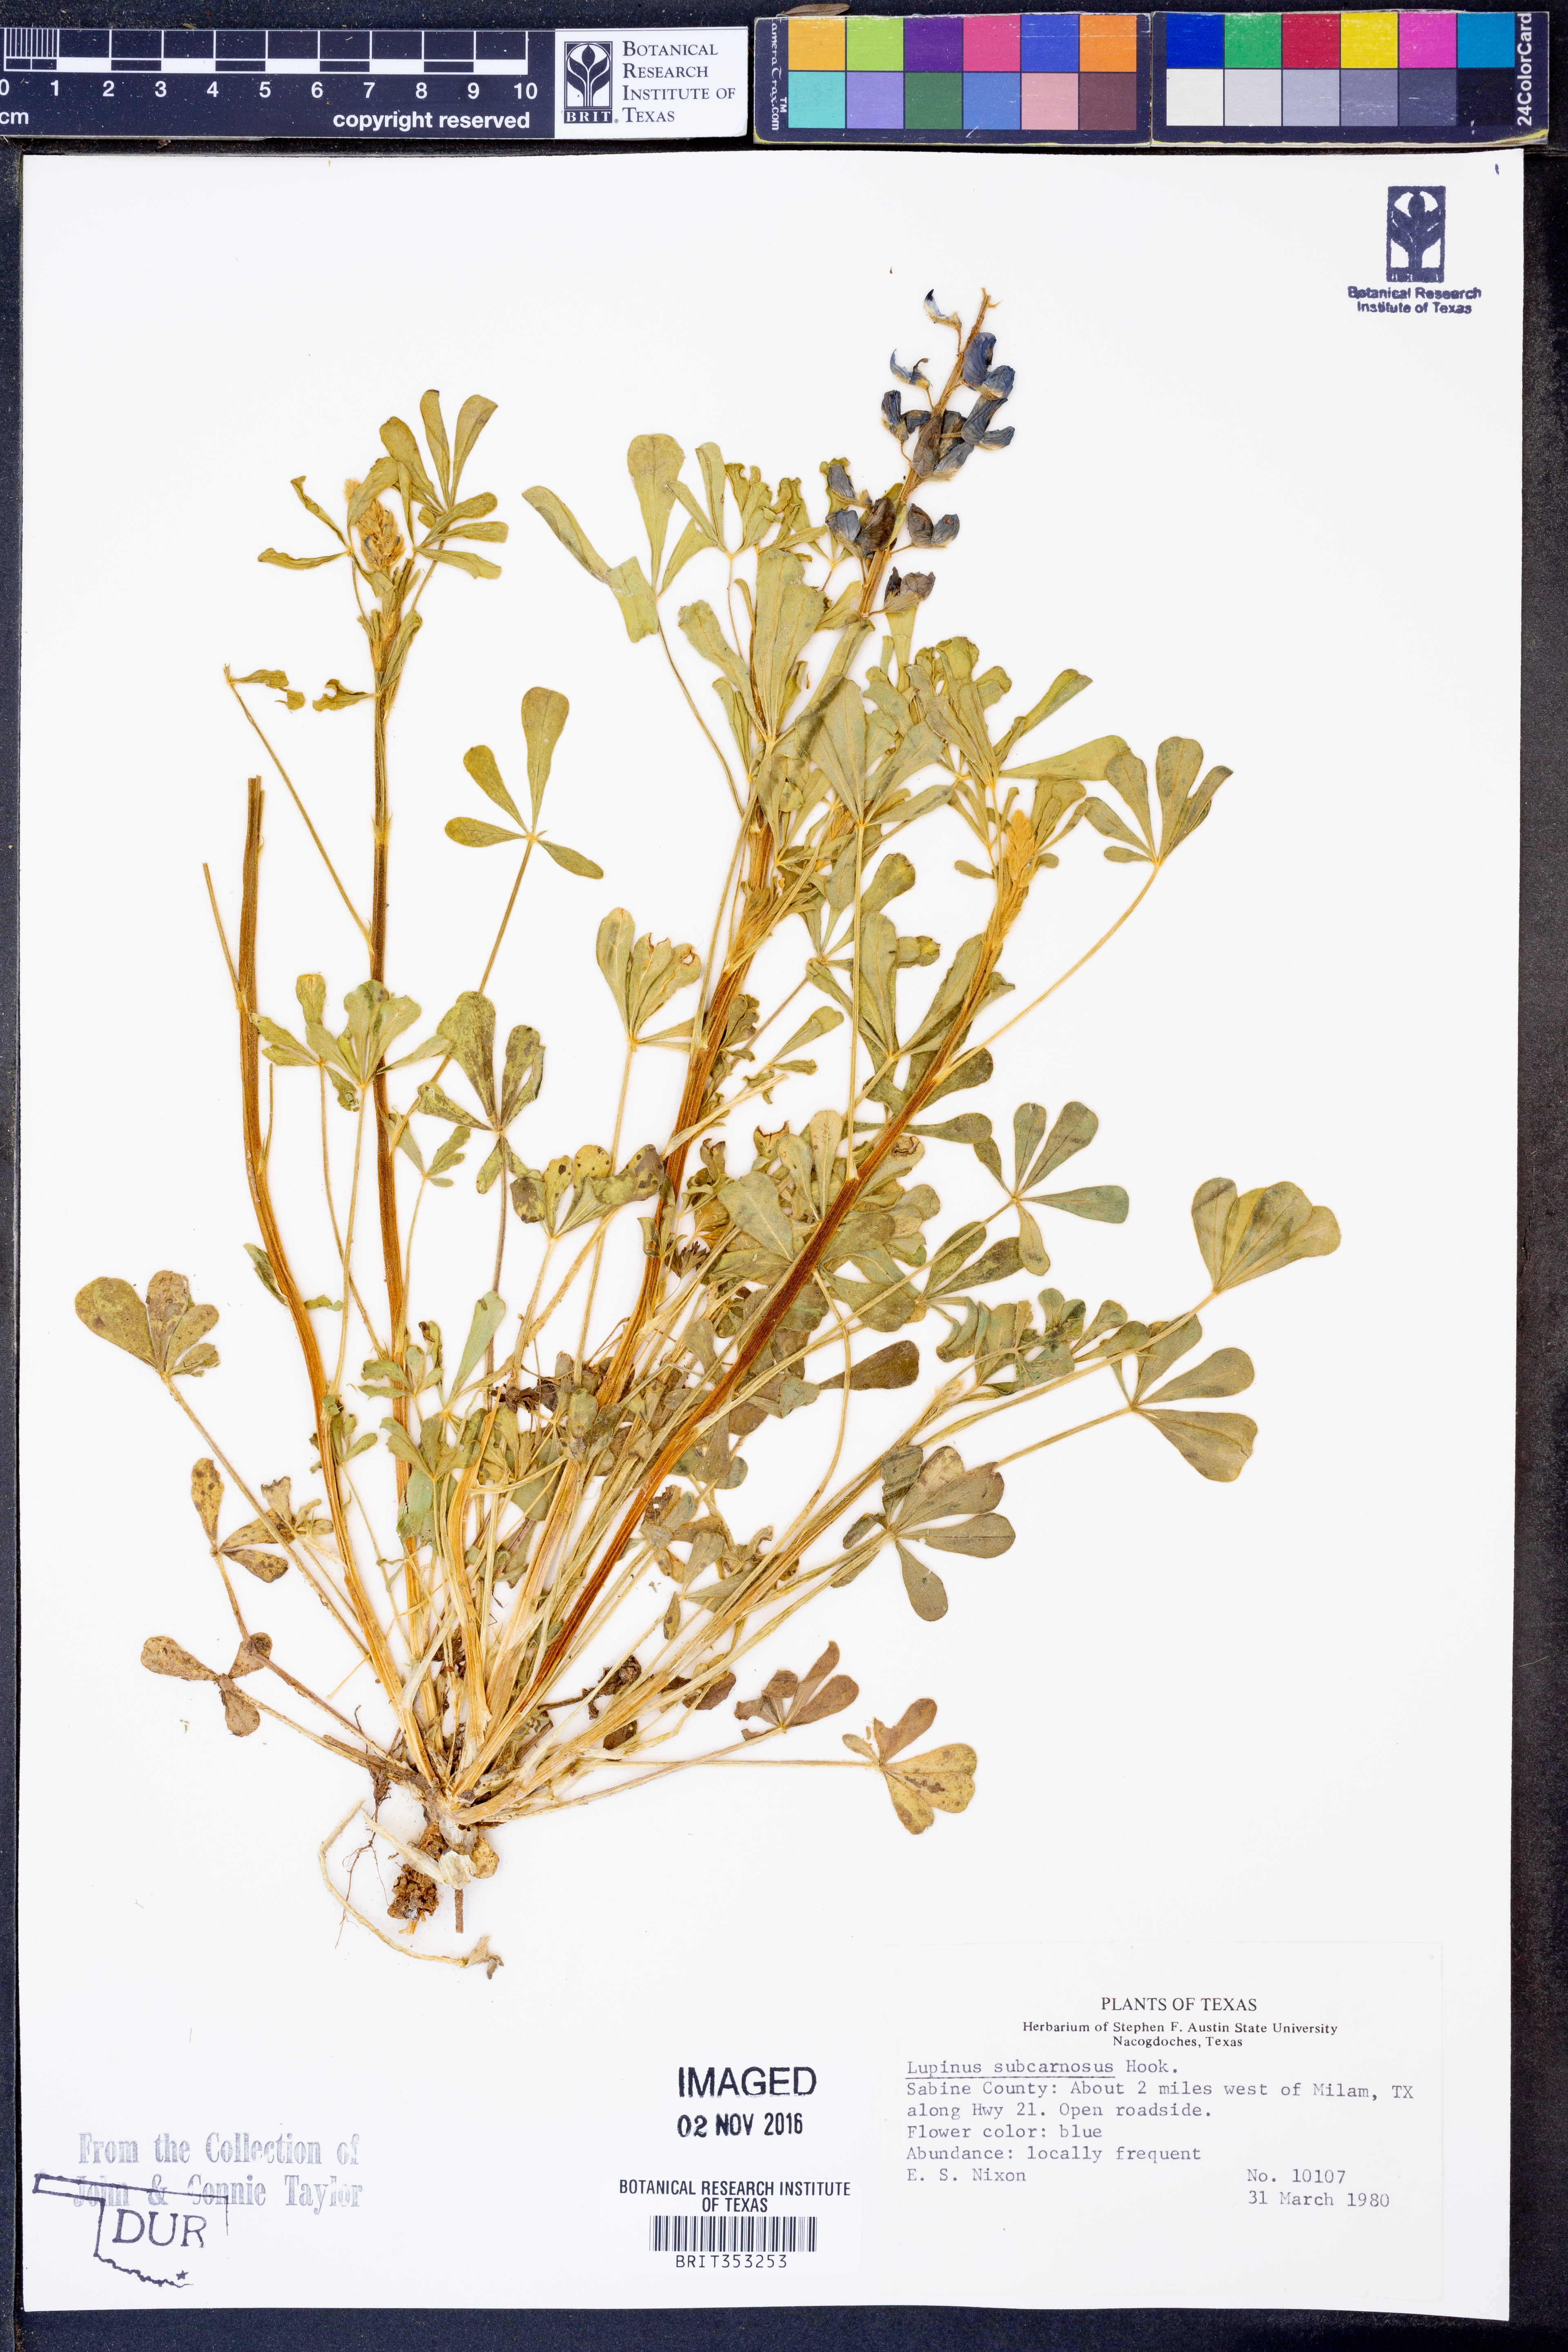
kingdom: Plantae
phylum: Tracheophyta
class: Magnoliopsida
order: Fabales
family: Fabaceae
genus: Lupinus
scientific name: Lupinus subcarnosus
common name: Texas bluebonnet
